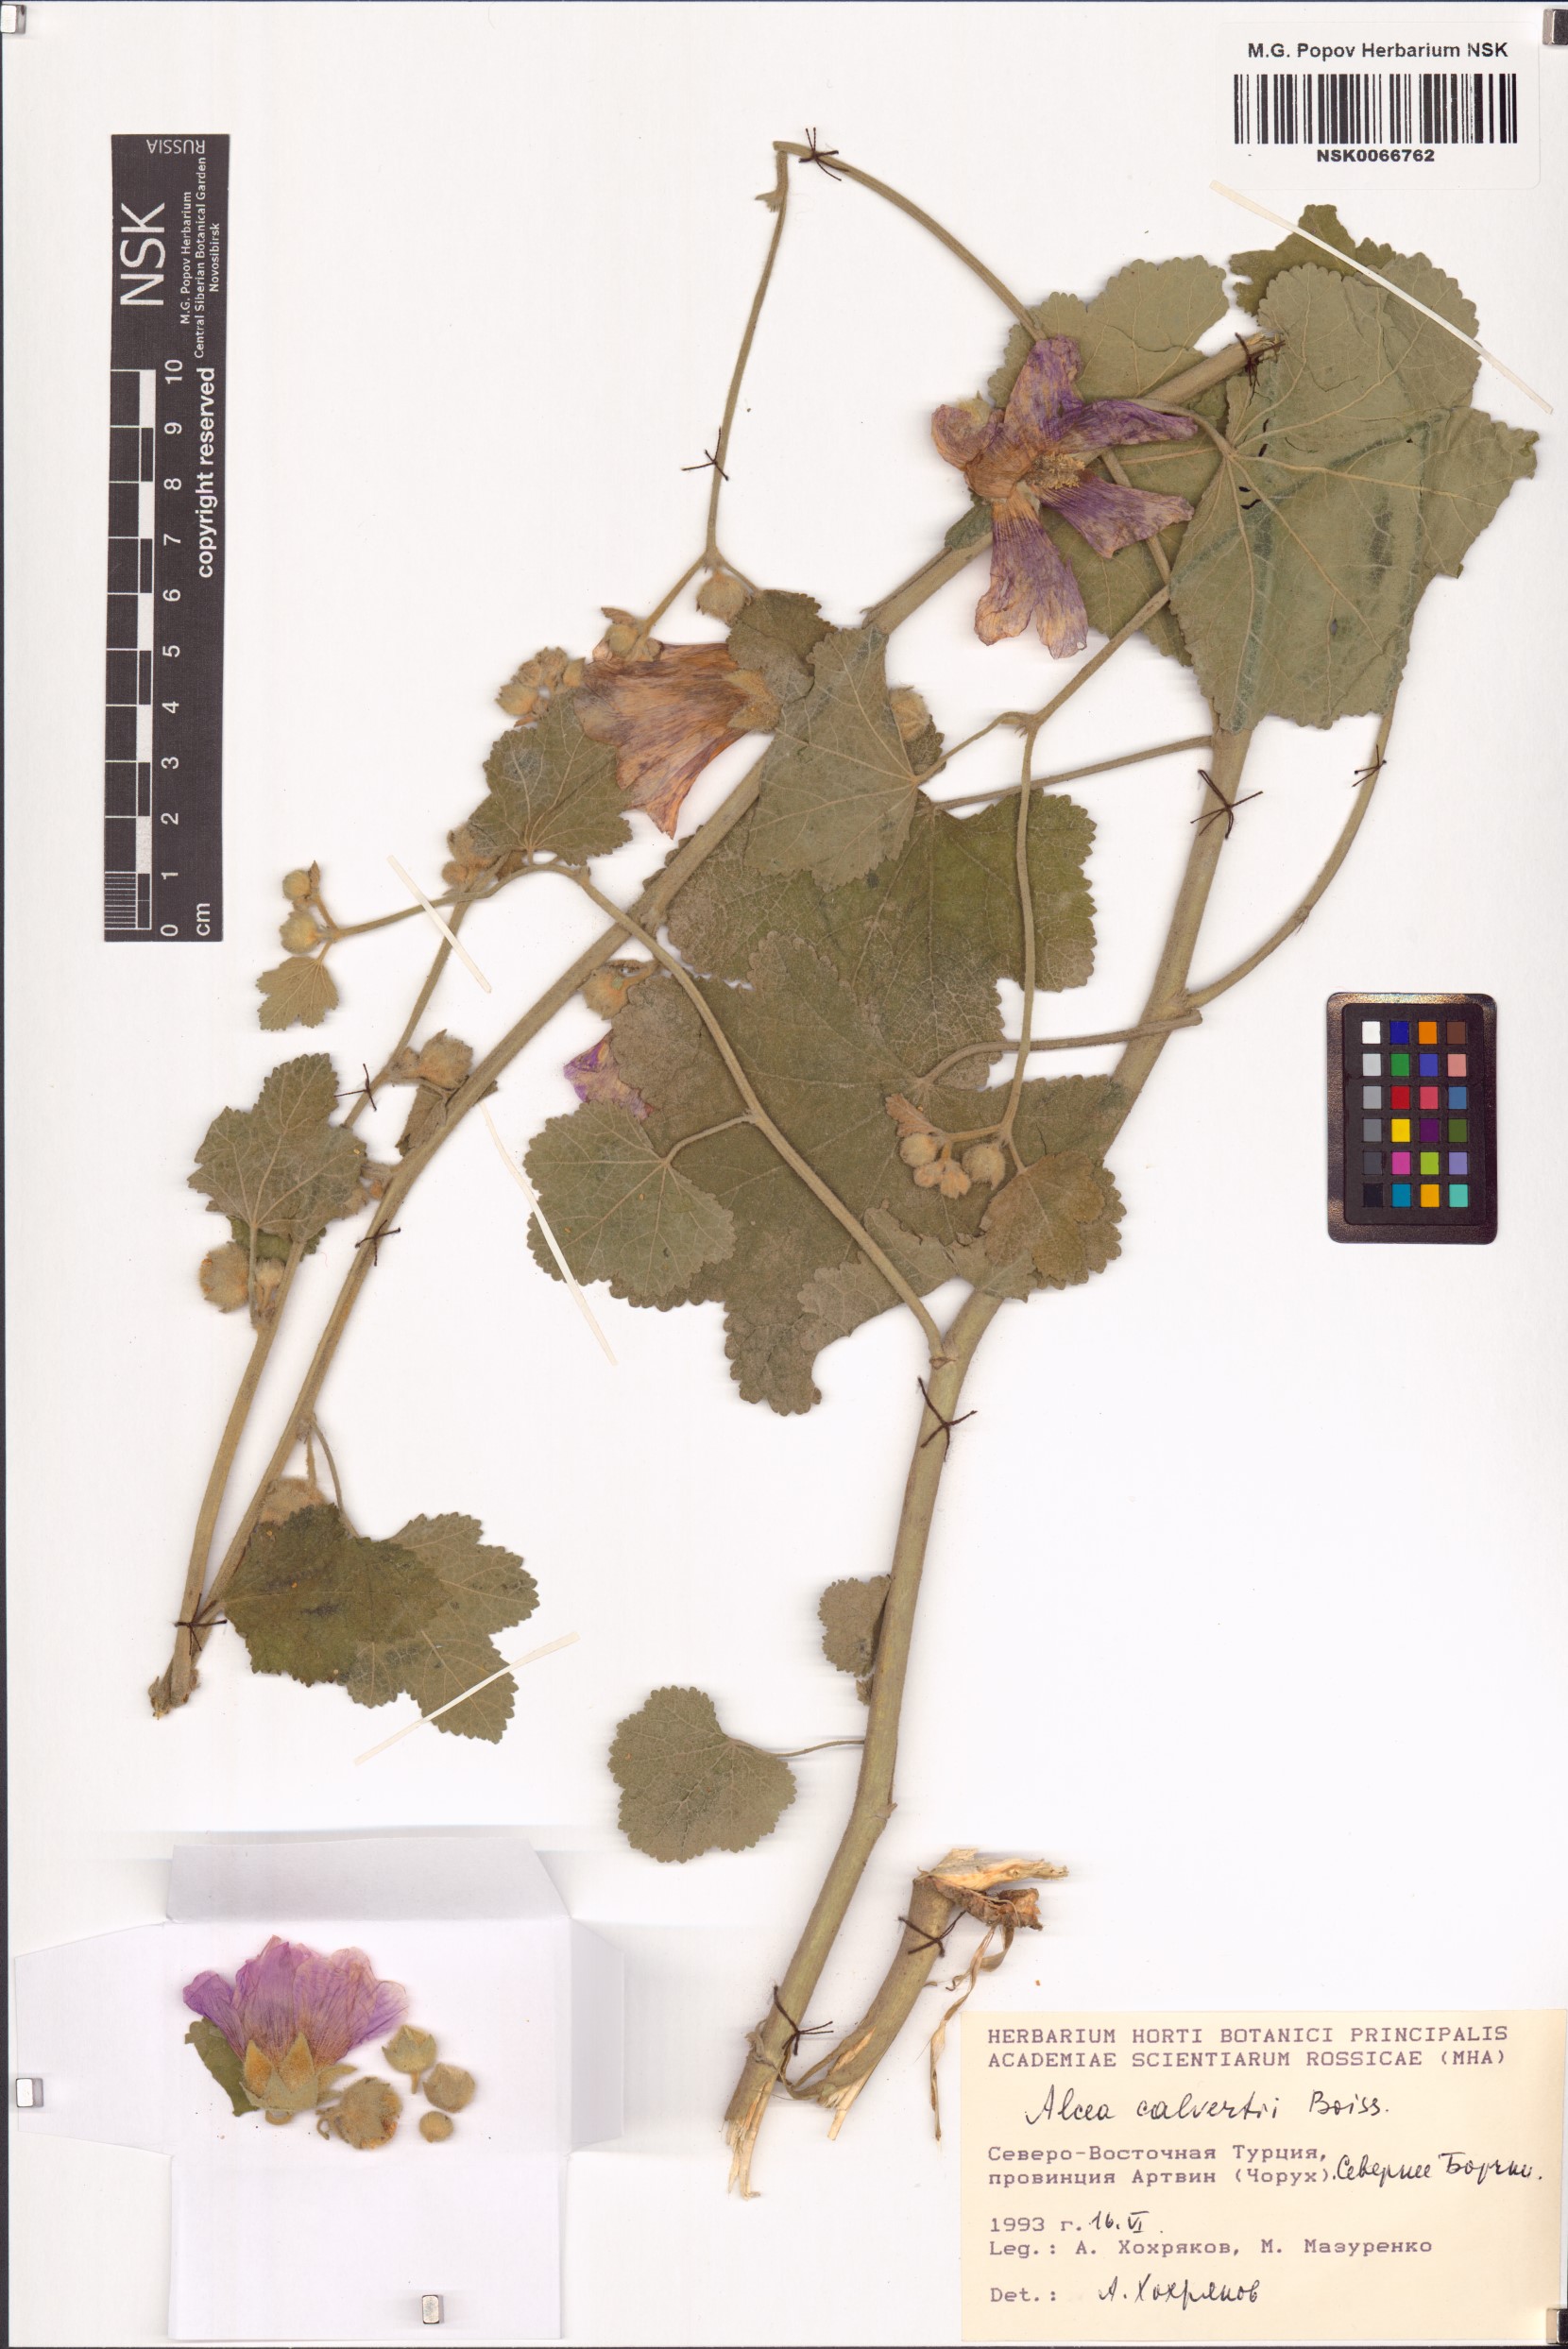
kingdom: Plantae
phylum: Tracheophyta
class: Magnoliopsida
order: Malvales
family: Malvaceae
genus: Alcea
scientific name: Alcea calverti
